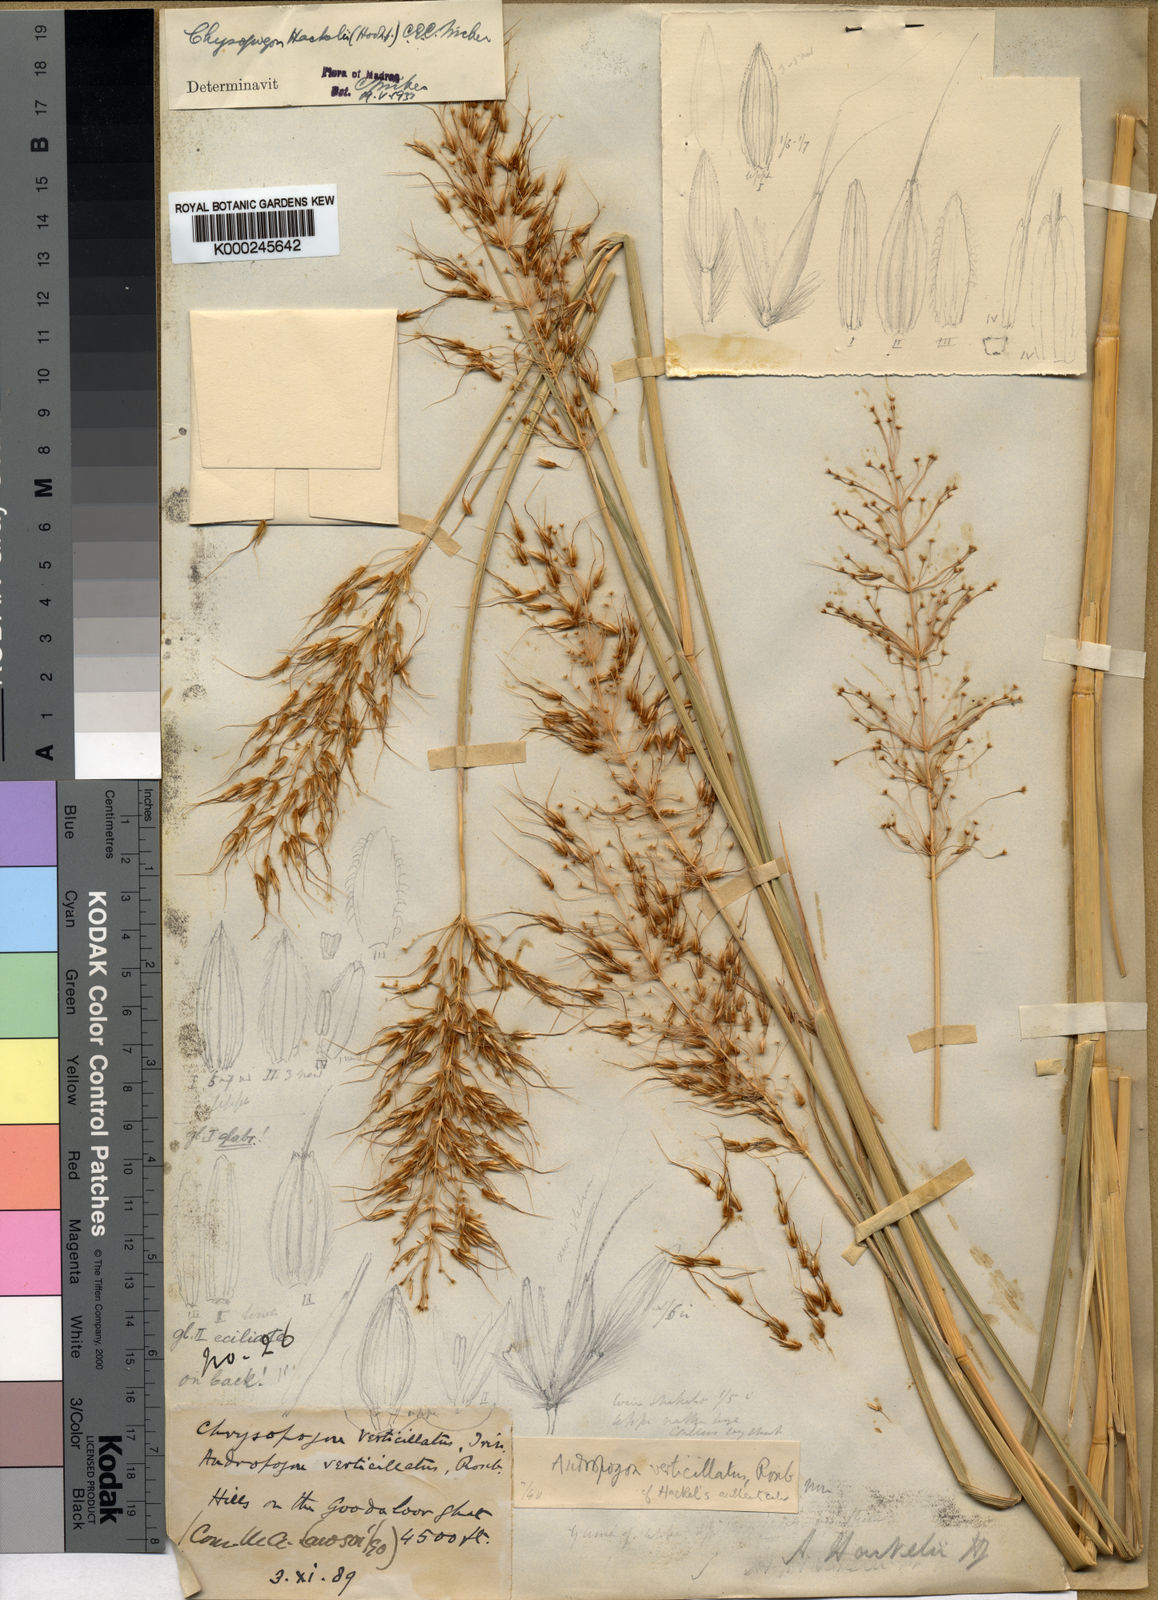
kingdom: Plantae
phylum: Tracheophyta
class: Liliopsida
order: Poales
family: Poaceae
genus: Chrysopogon
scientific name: Chrysopogon hackelii
